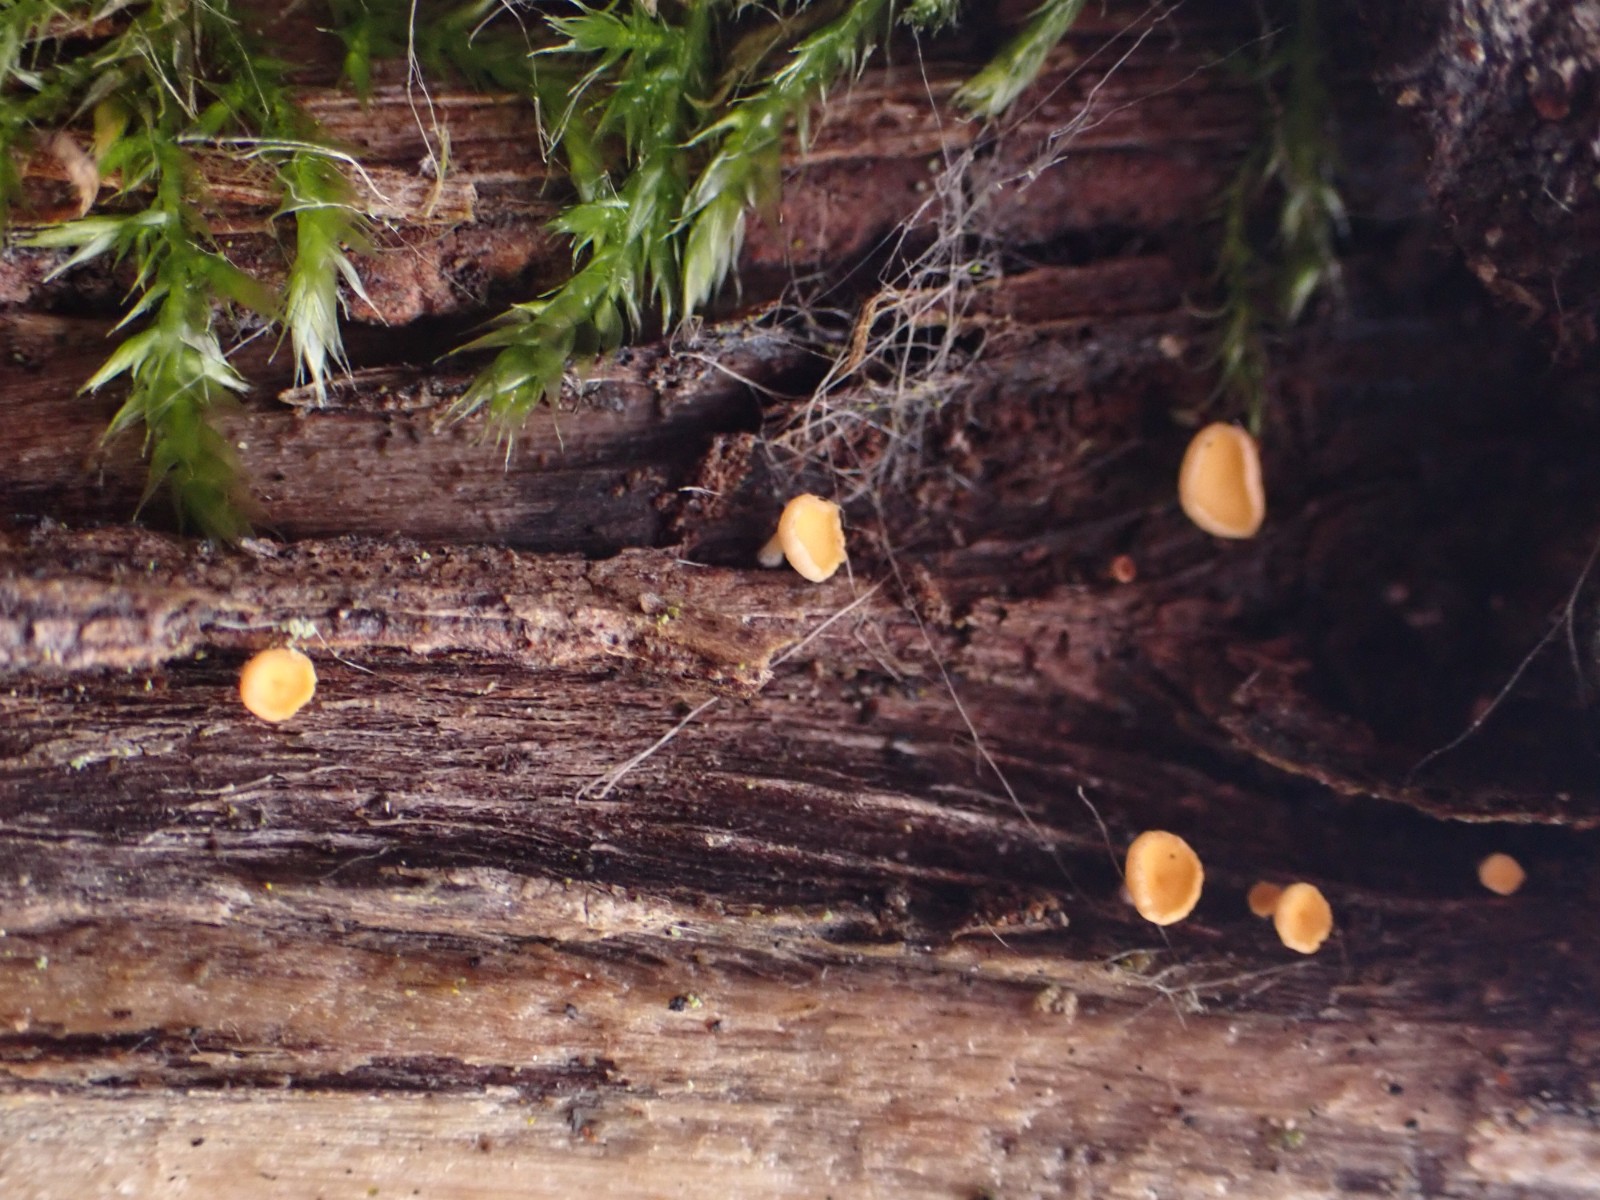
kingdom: Fungi
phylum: Ascomycota
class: Leotiomycetes
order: Helotiales
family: Helotiaceae
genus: Hymenoscyphus
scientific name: Hymenoscyphus
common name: stilkskive
